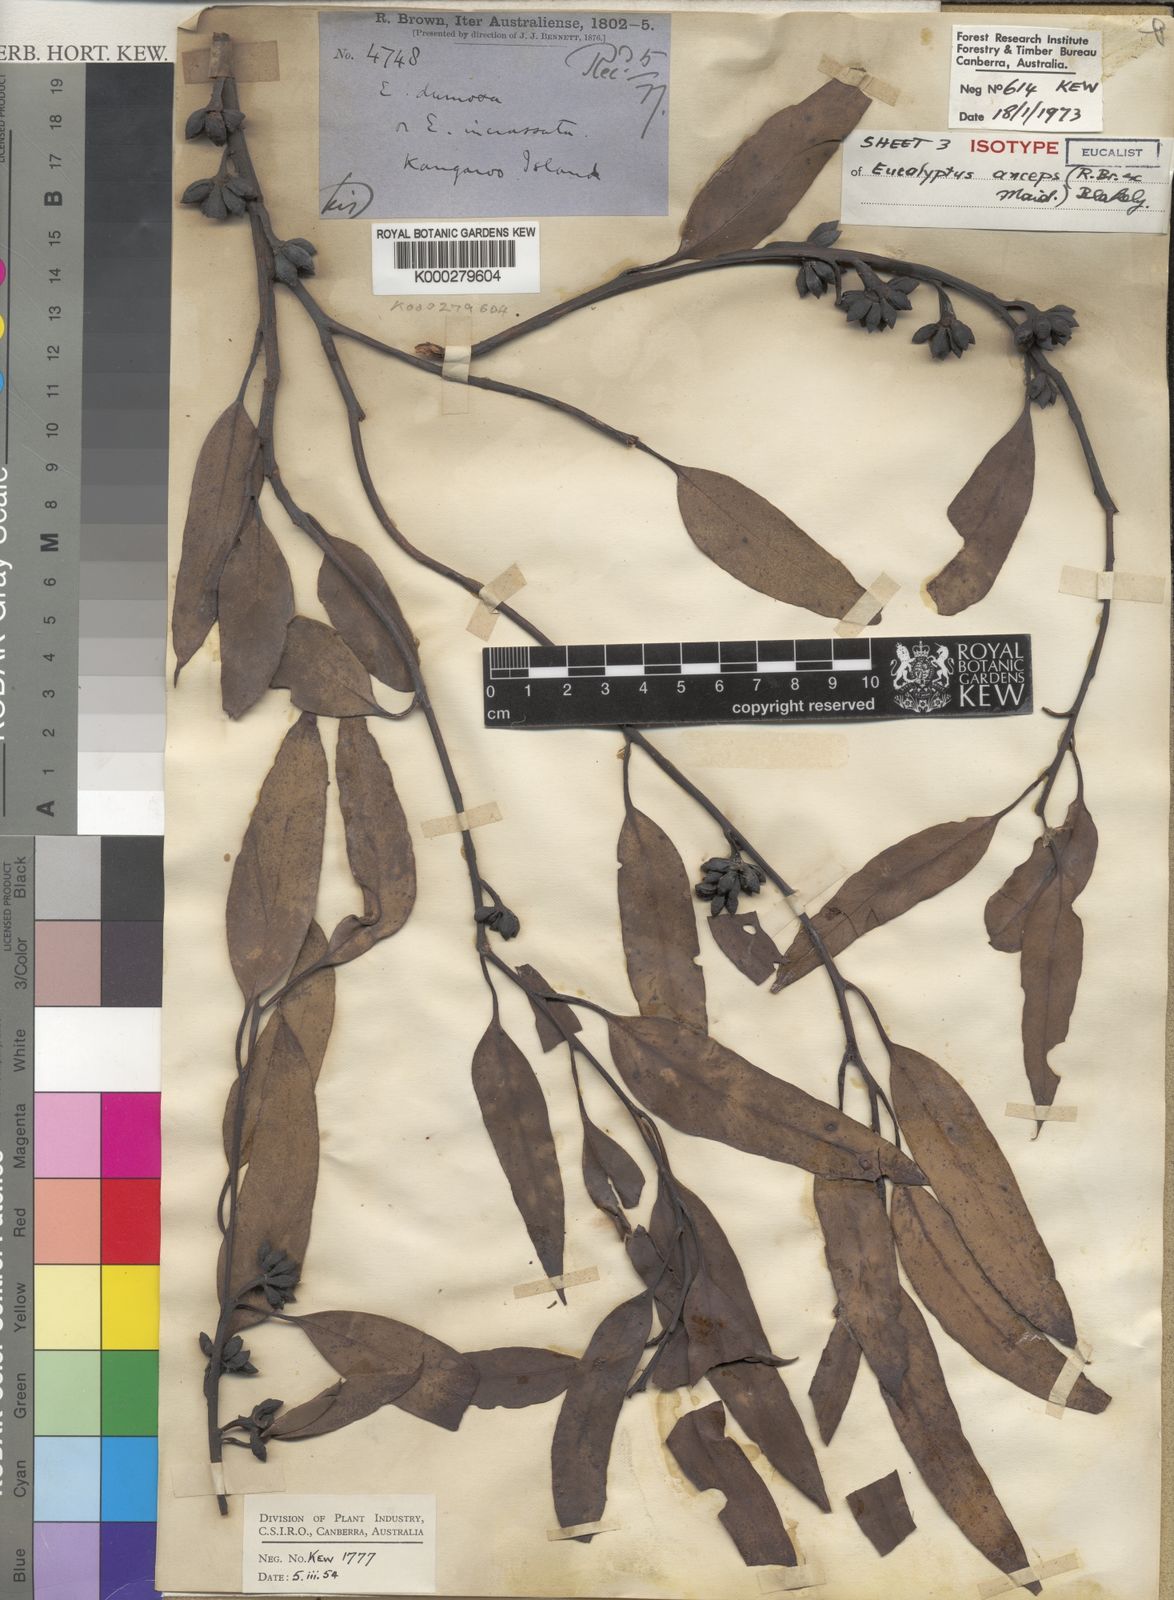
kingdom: Plantae
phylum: Tracheophyta
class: Magnoliopsida
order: Myrtales
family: Myrtaceae
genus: Eucalyptus
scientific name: Eucalyptus anceps
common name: Kangaroo island mallee
